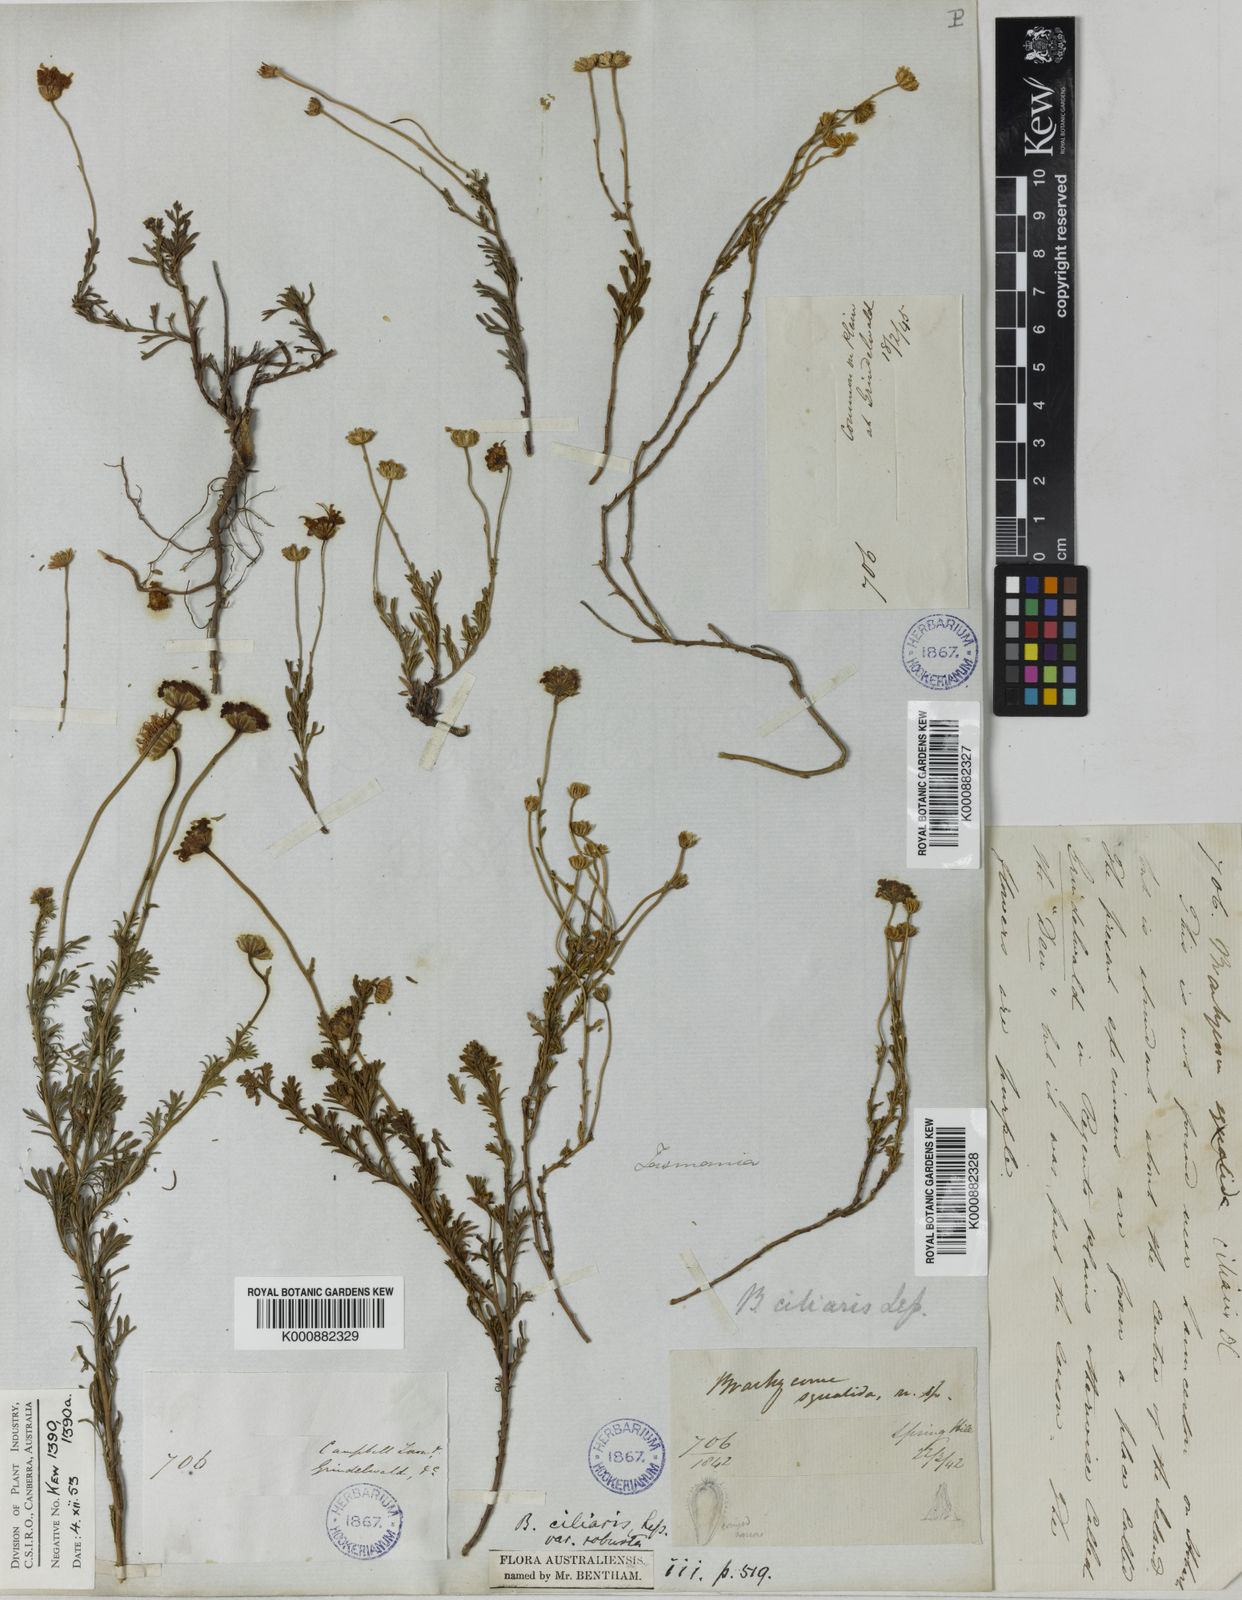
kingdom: Plantae
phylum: Tracheophyta
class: Magnoliopsida
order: Asterales
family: Asteraceae
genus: Brachyscome
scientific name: Brachyscome rigidula
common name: Leafy daisy
